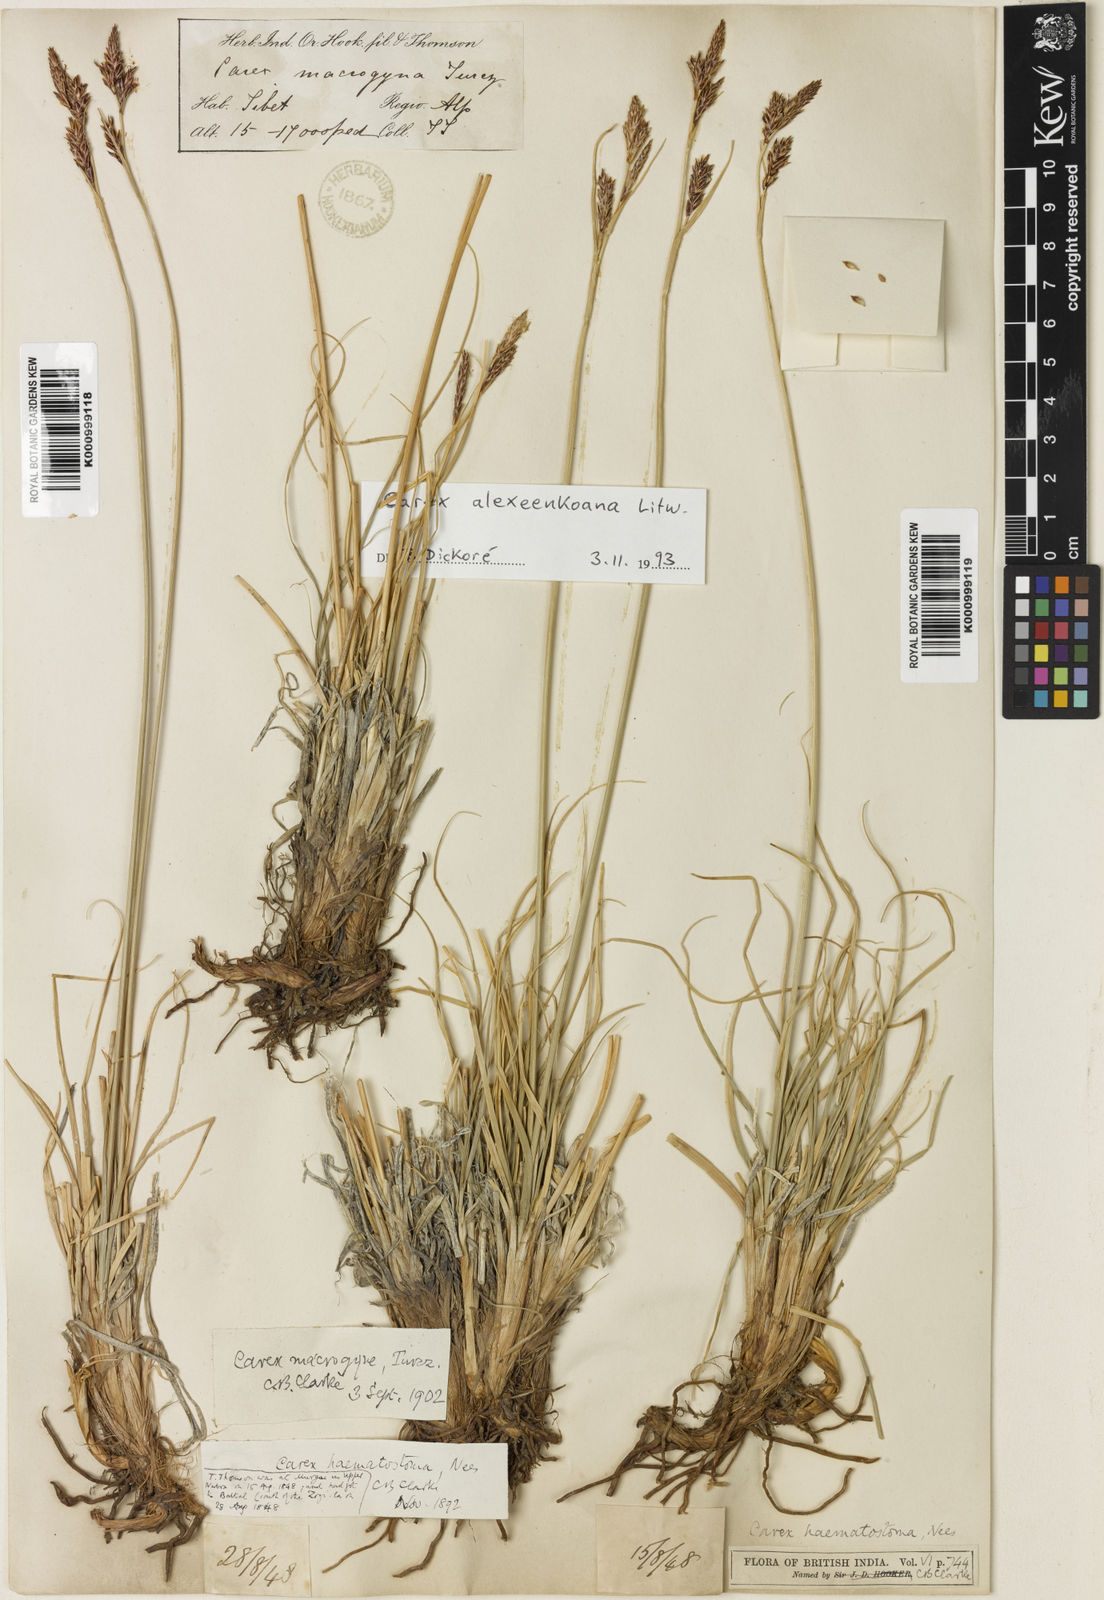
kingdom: Plantae
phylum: Tracheophyta
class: Liliopsida
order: Poales
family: Cyperaceae
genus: Carex
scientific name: Carex haematostoma
